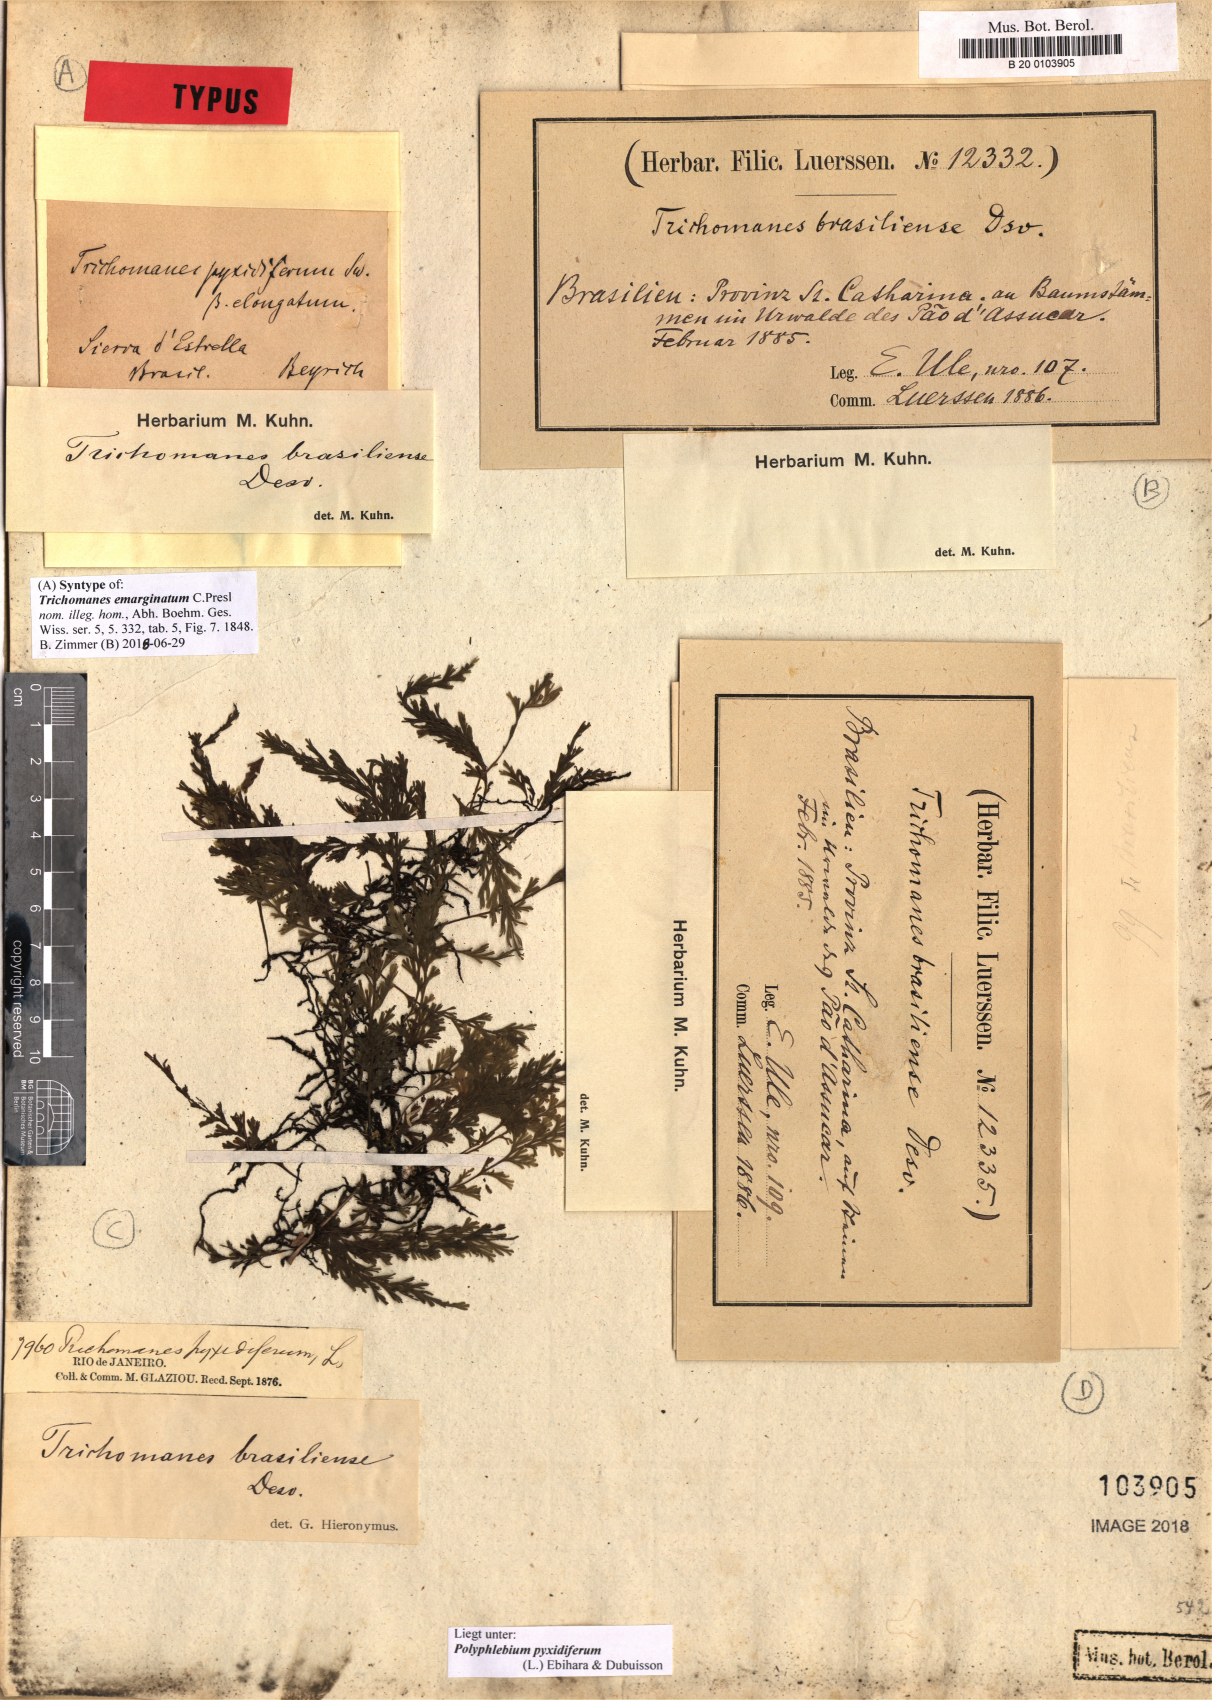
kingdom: Plantae
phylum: Tracheophyta
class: Polypodiopsida
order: Hymenophyllales
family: Hymenophyllaceae
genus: Polyphlebium
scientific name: Polyphlebium pyxidiferum
